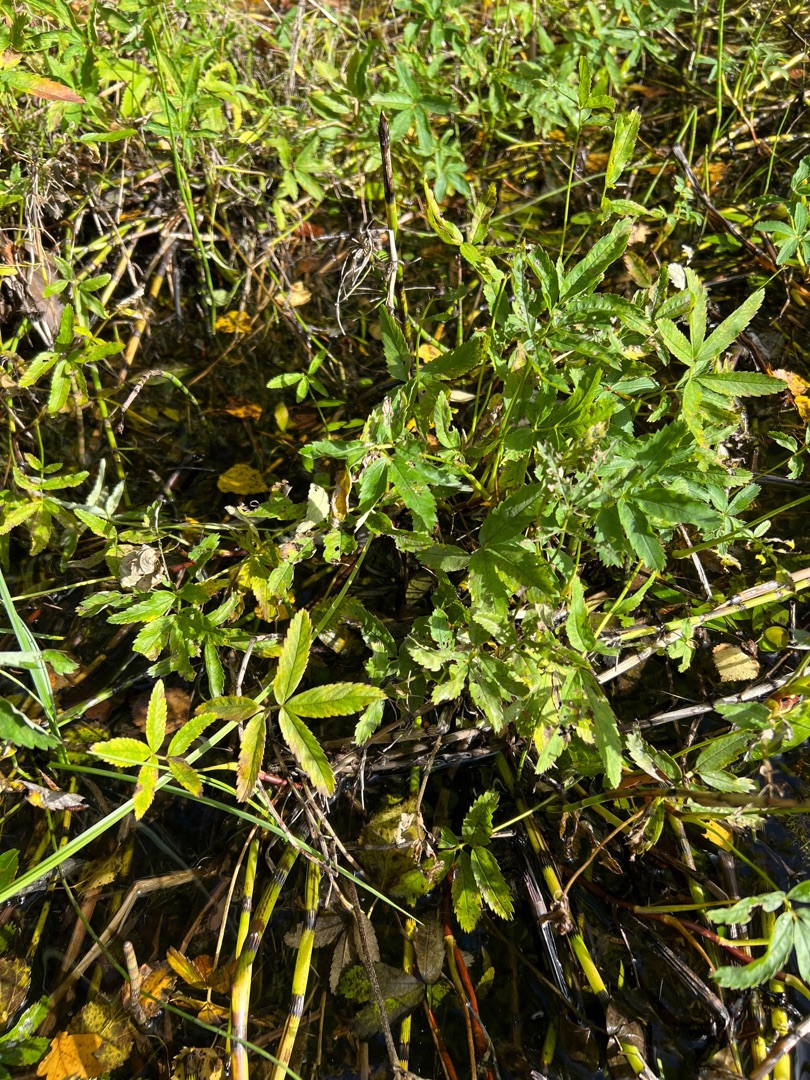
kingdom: Plantae
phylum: Tracheophyta
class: Magnoliopsida
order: Rosales
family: Rosaceae
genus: Comarum
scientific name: Comarum palustre
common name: Kragefod
